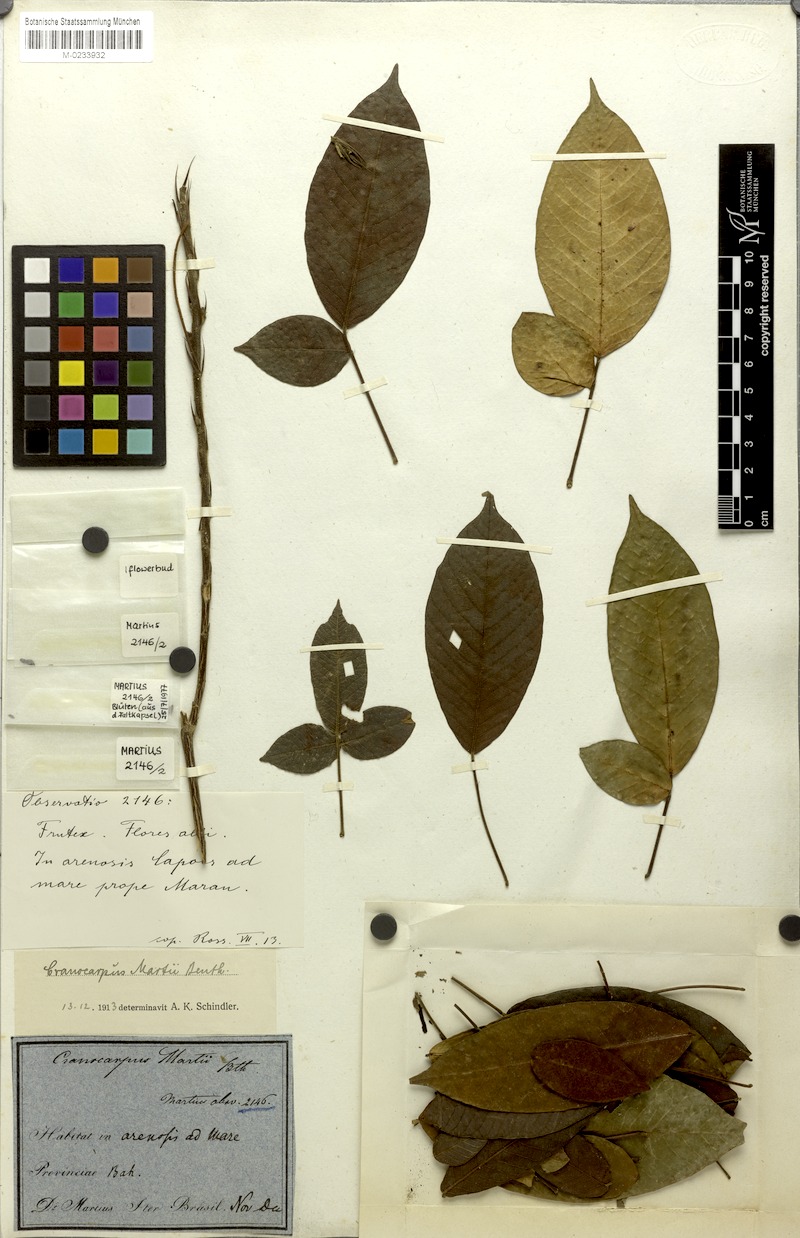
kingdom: Plantae
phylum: Tracheophyta
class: Magnoliopsida
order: Fabales
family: Fabaceae
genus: Cranocarpus
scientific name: Cranocarpus martii
